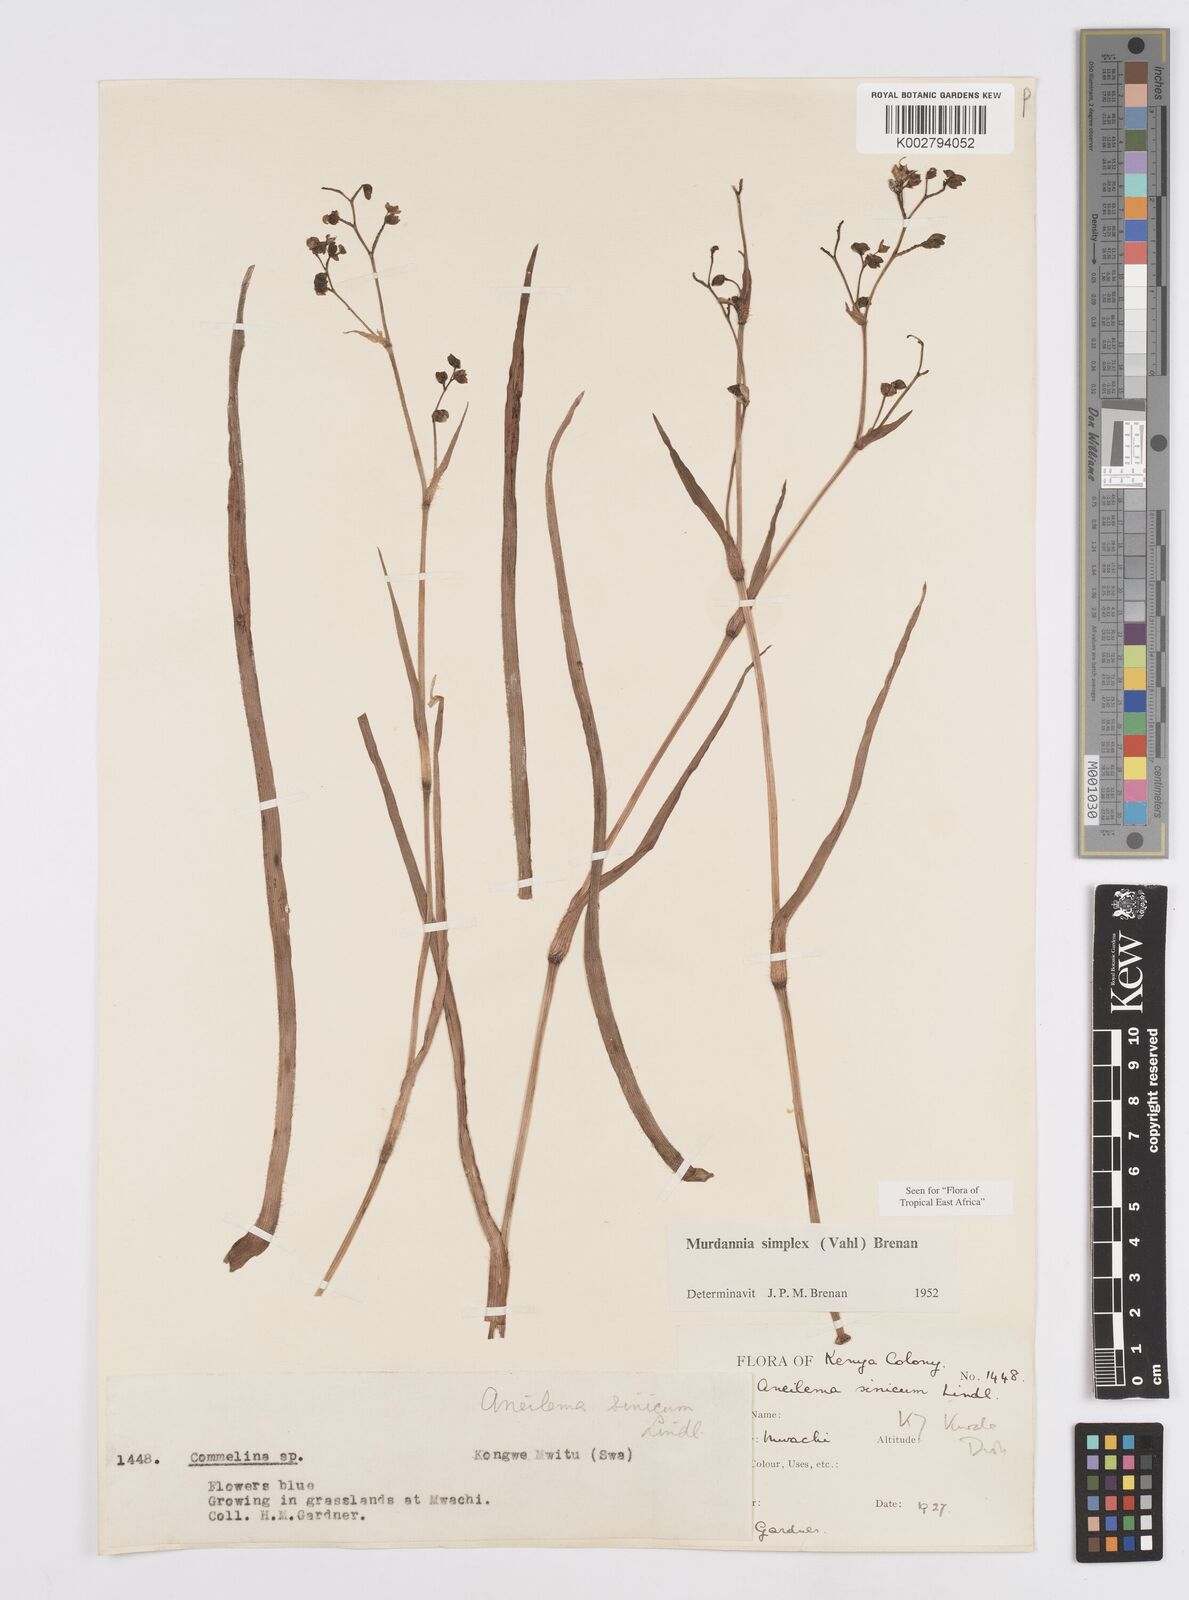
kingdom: Plantae
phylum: Tracheophyta
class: Liliopsida
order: Commelinales
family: Commelinaceae
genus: Murdannia
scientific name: Murdannia simplex
